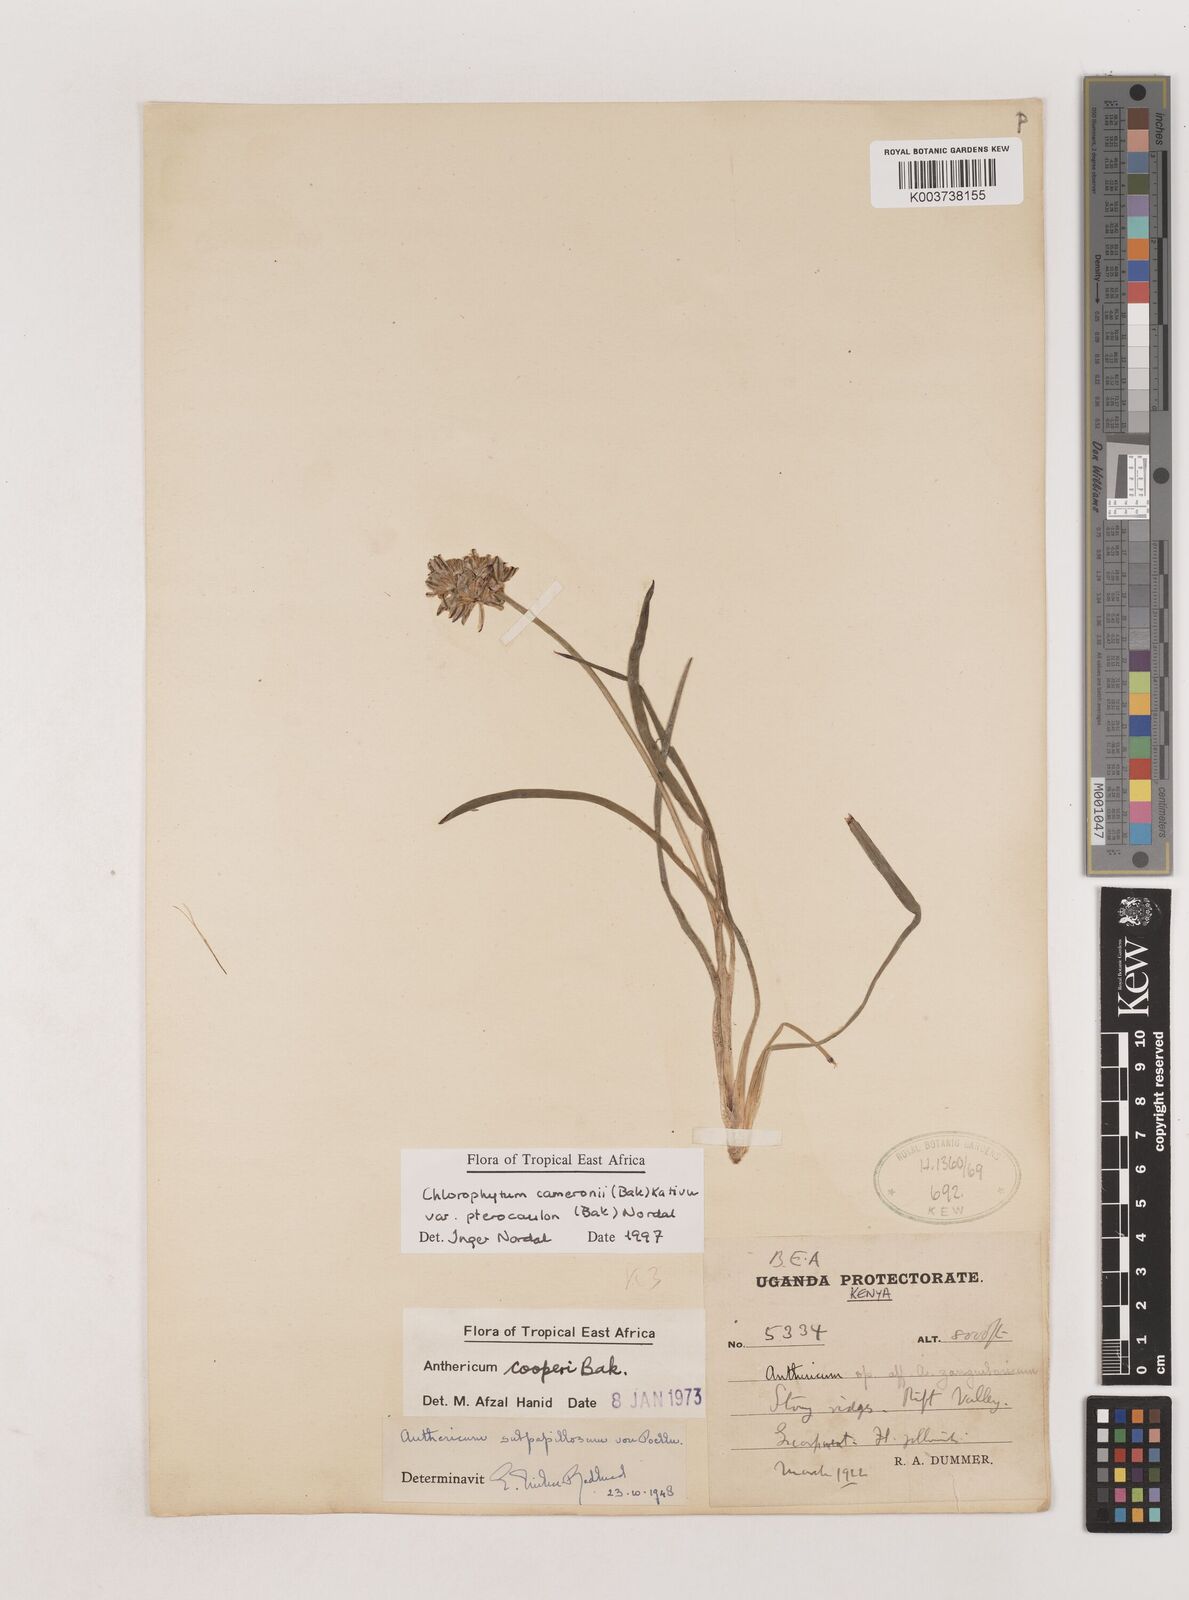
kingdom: Plantae
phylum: Tracheophyta
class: Liliopsida
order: Asparagales
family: Asparagaceae
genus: Chlorophytum
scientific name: Chlorophytum cameronii
